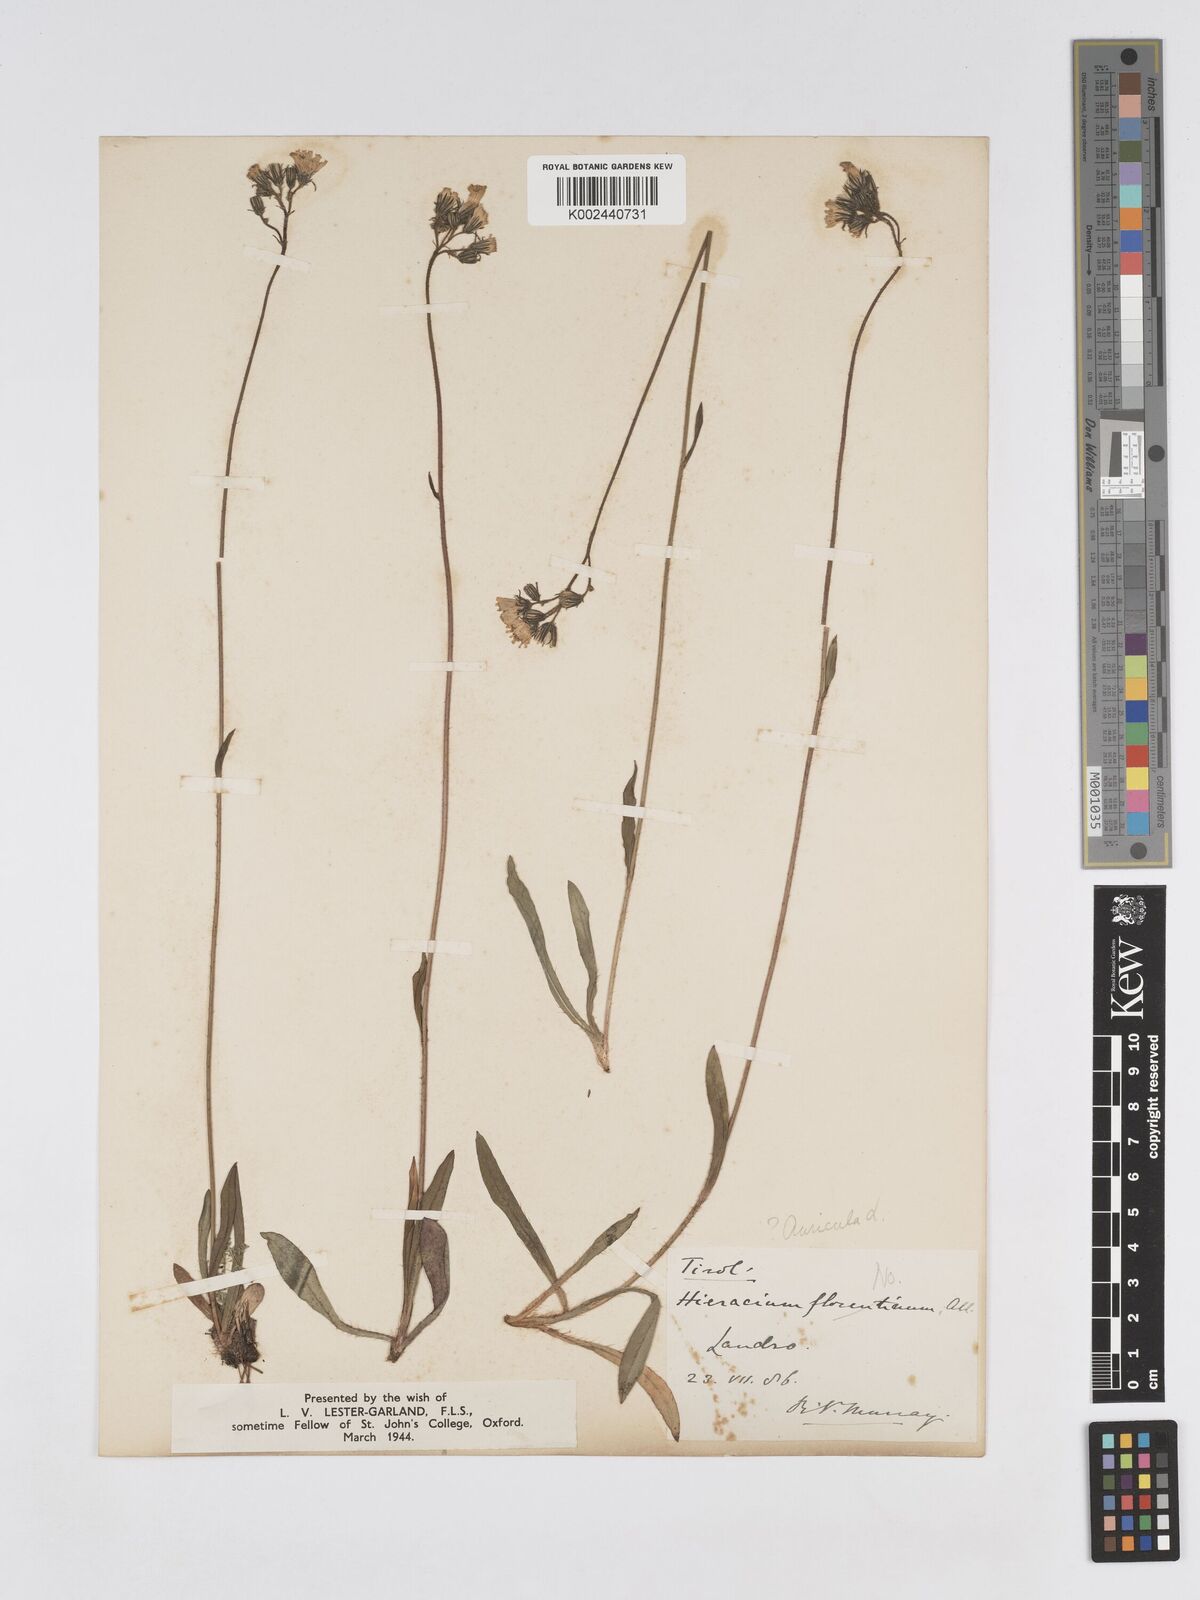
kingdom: Plantae
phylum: Tracheophyta
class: Magnoliopsida
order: Asterales
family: Asteraceae
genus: Pilosella
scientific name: Pilosella floribunda
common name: Glaucous hawkweed
